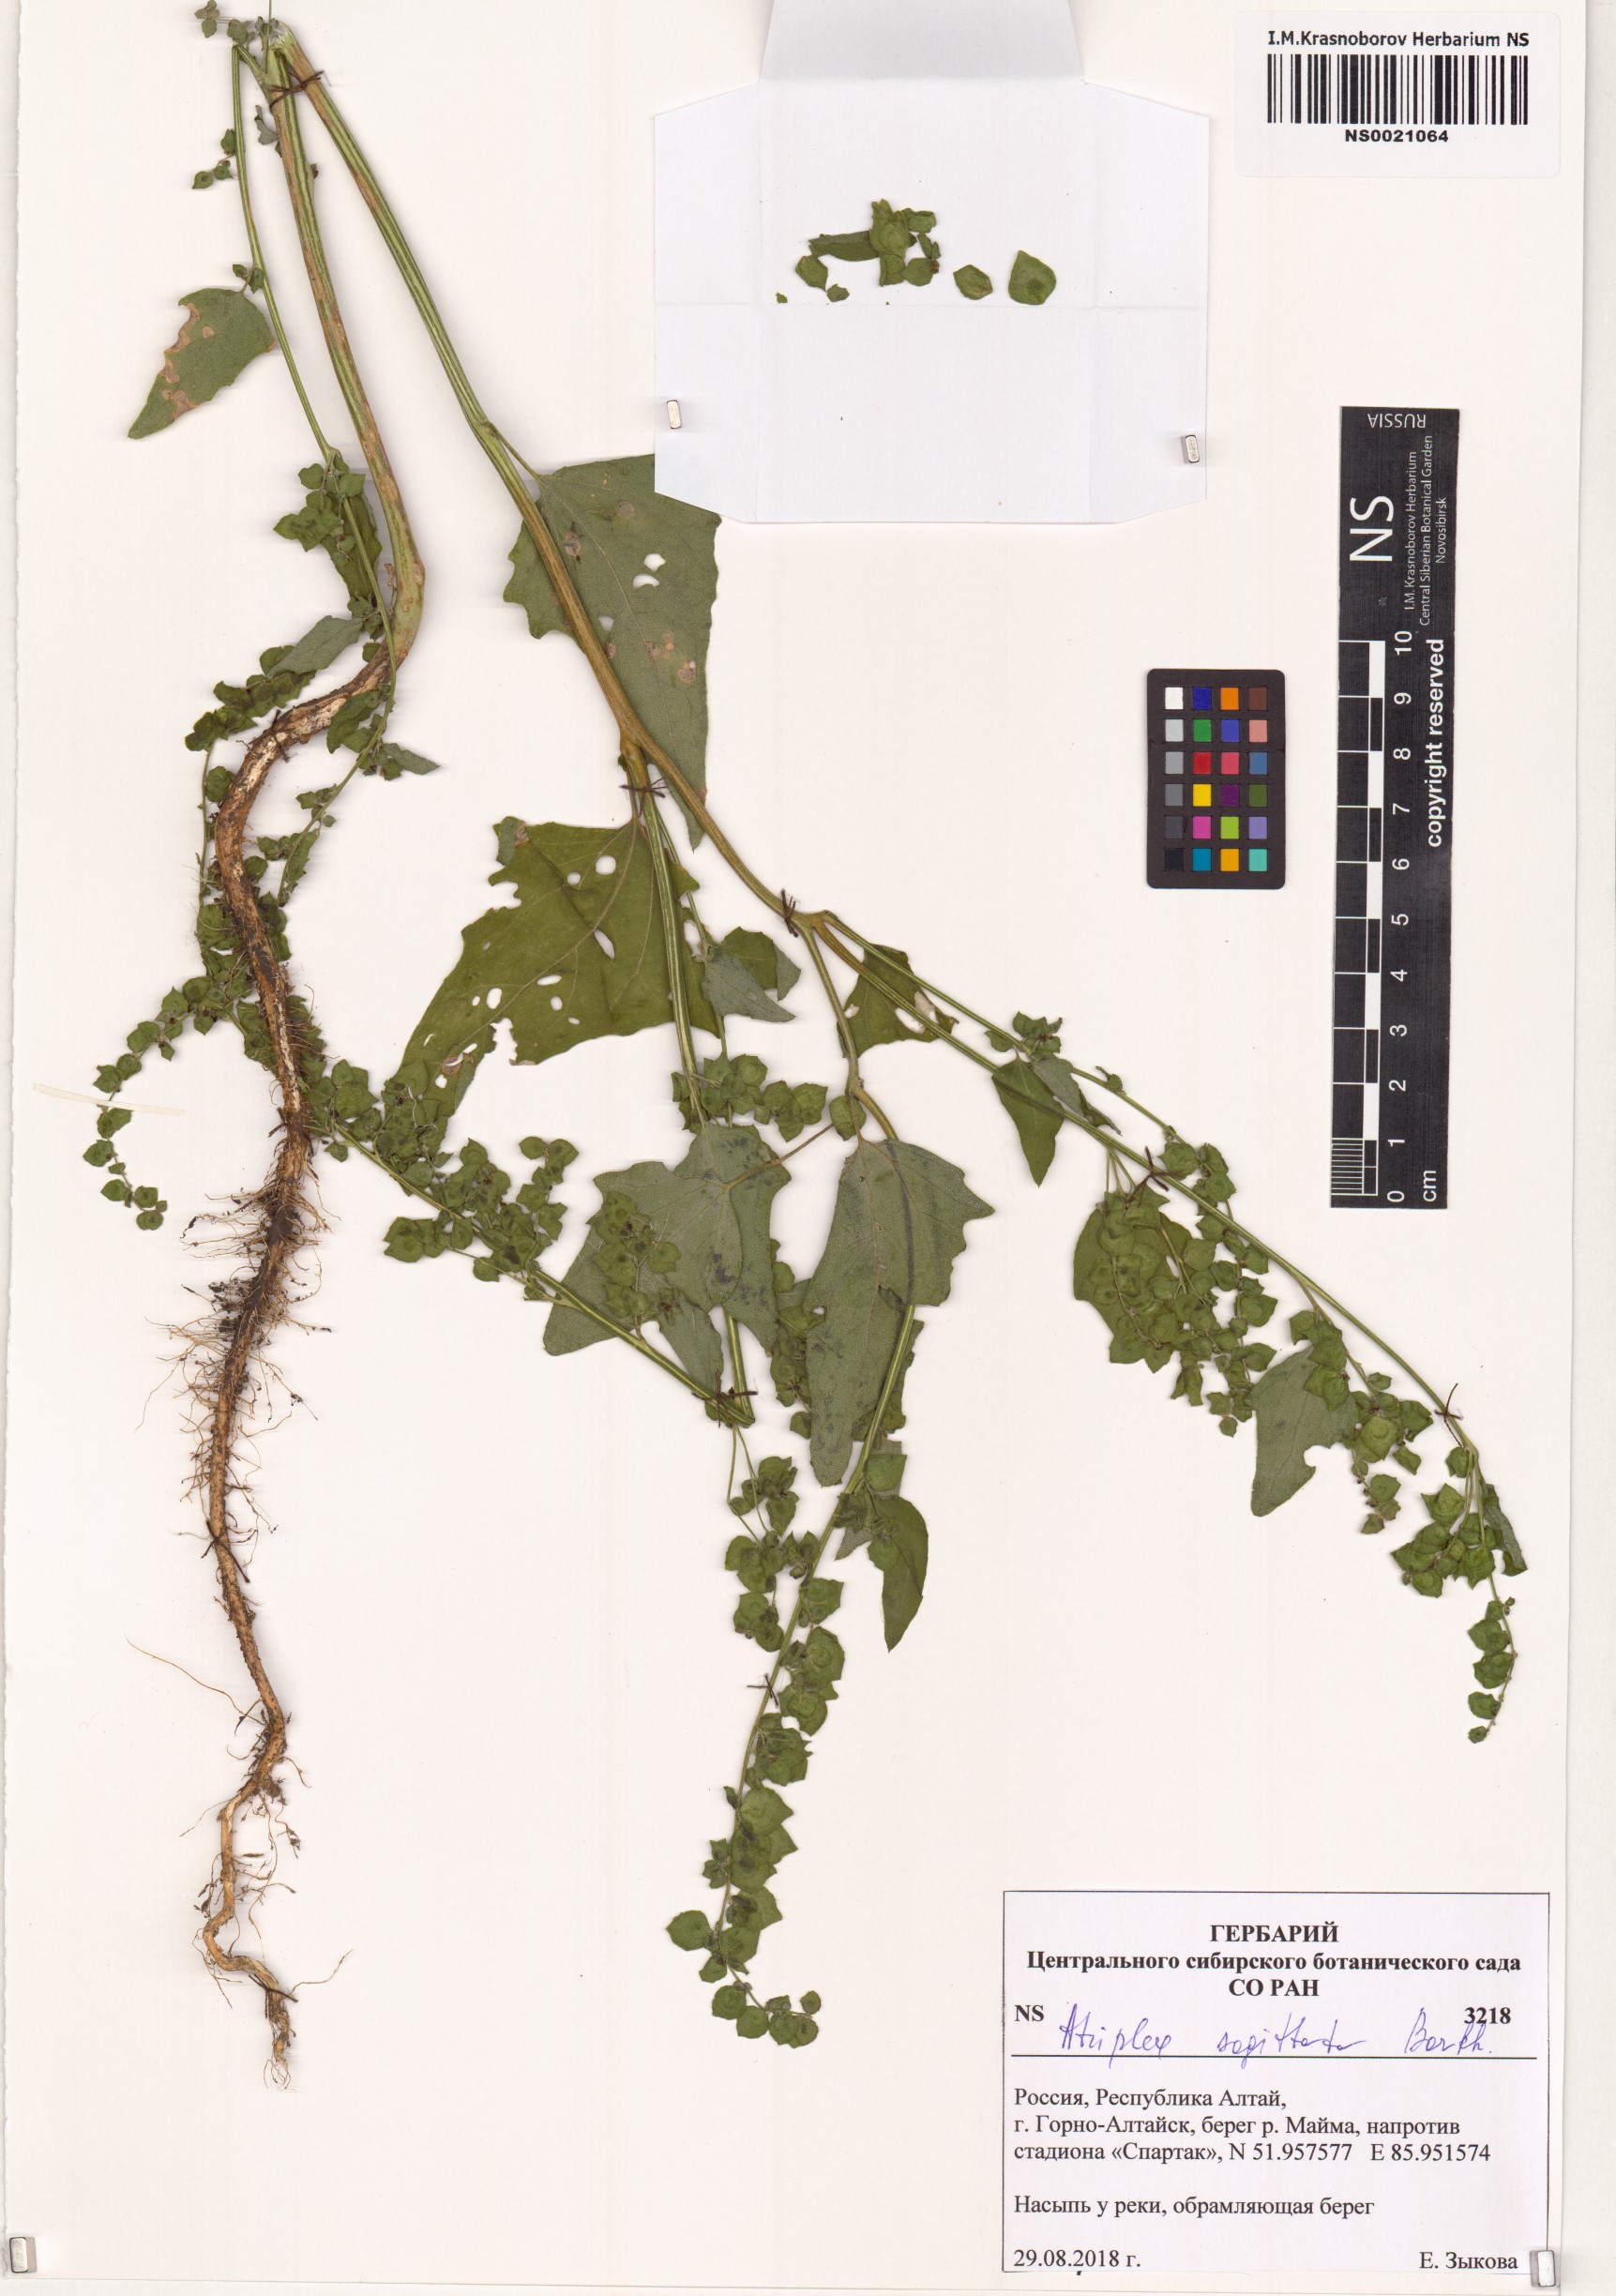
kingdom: Plantae
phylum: Tracheophyta
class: Magnoliopsida
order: Caryophyllales
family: Amaranthaceae
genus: Atriplex
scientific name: Atriplex sagittata
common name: Purple orache
